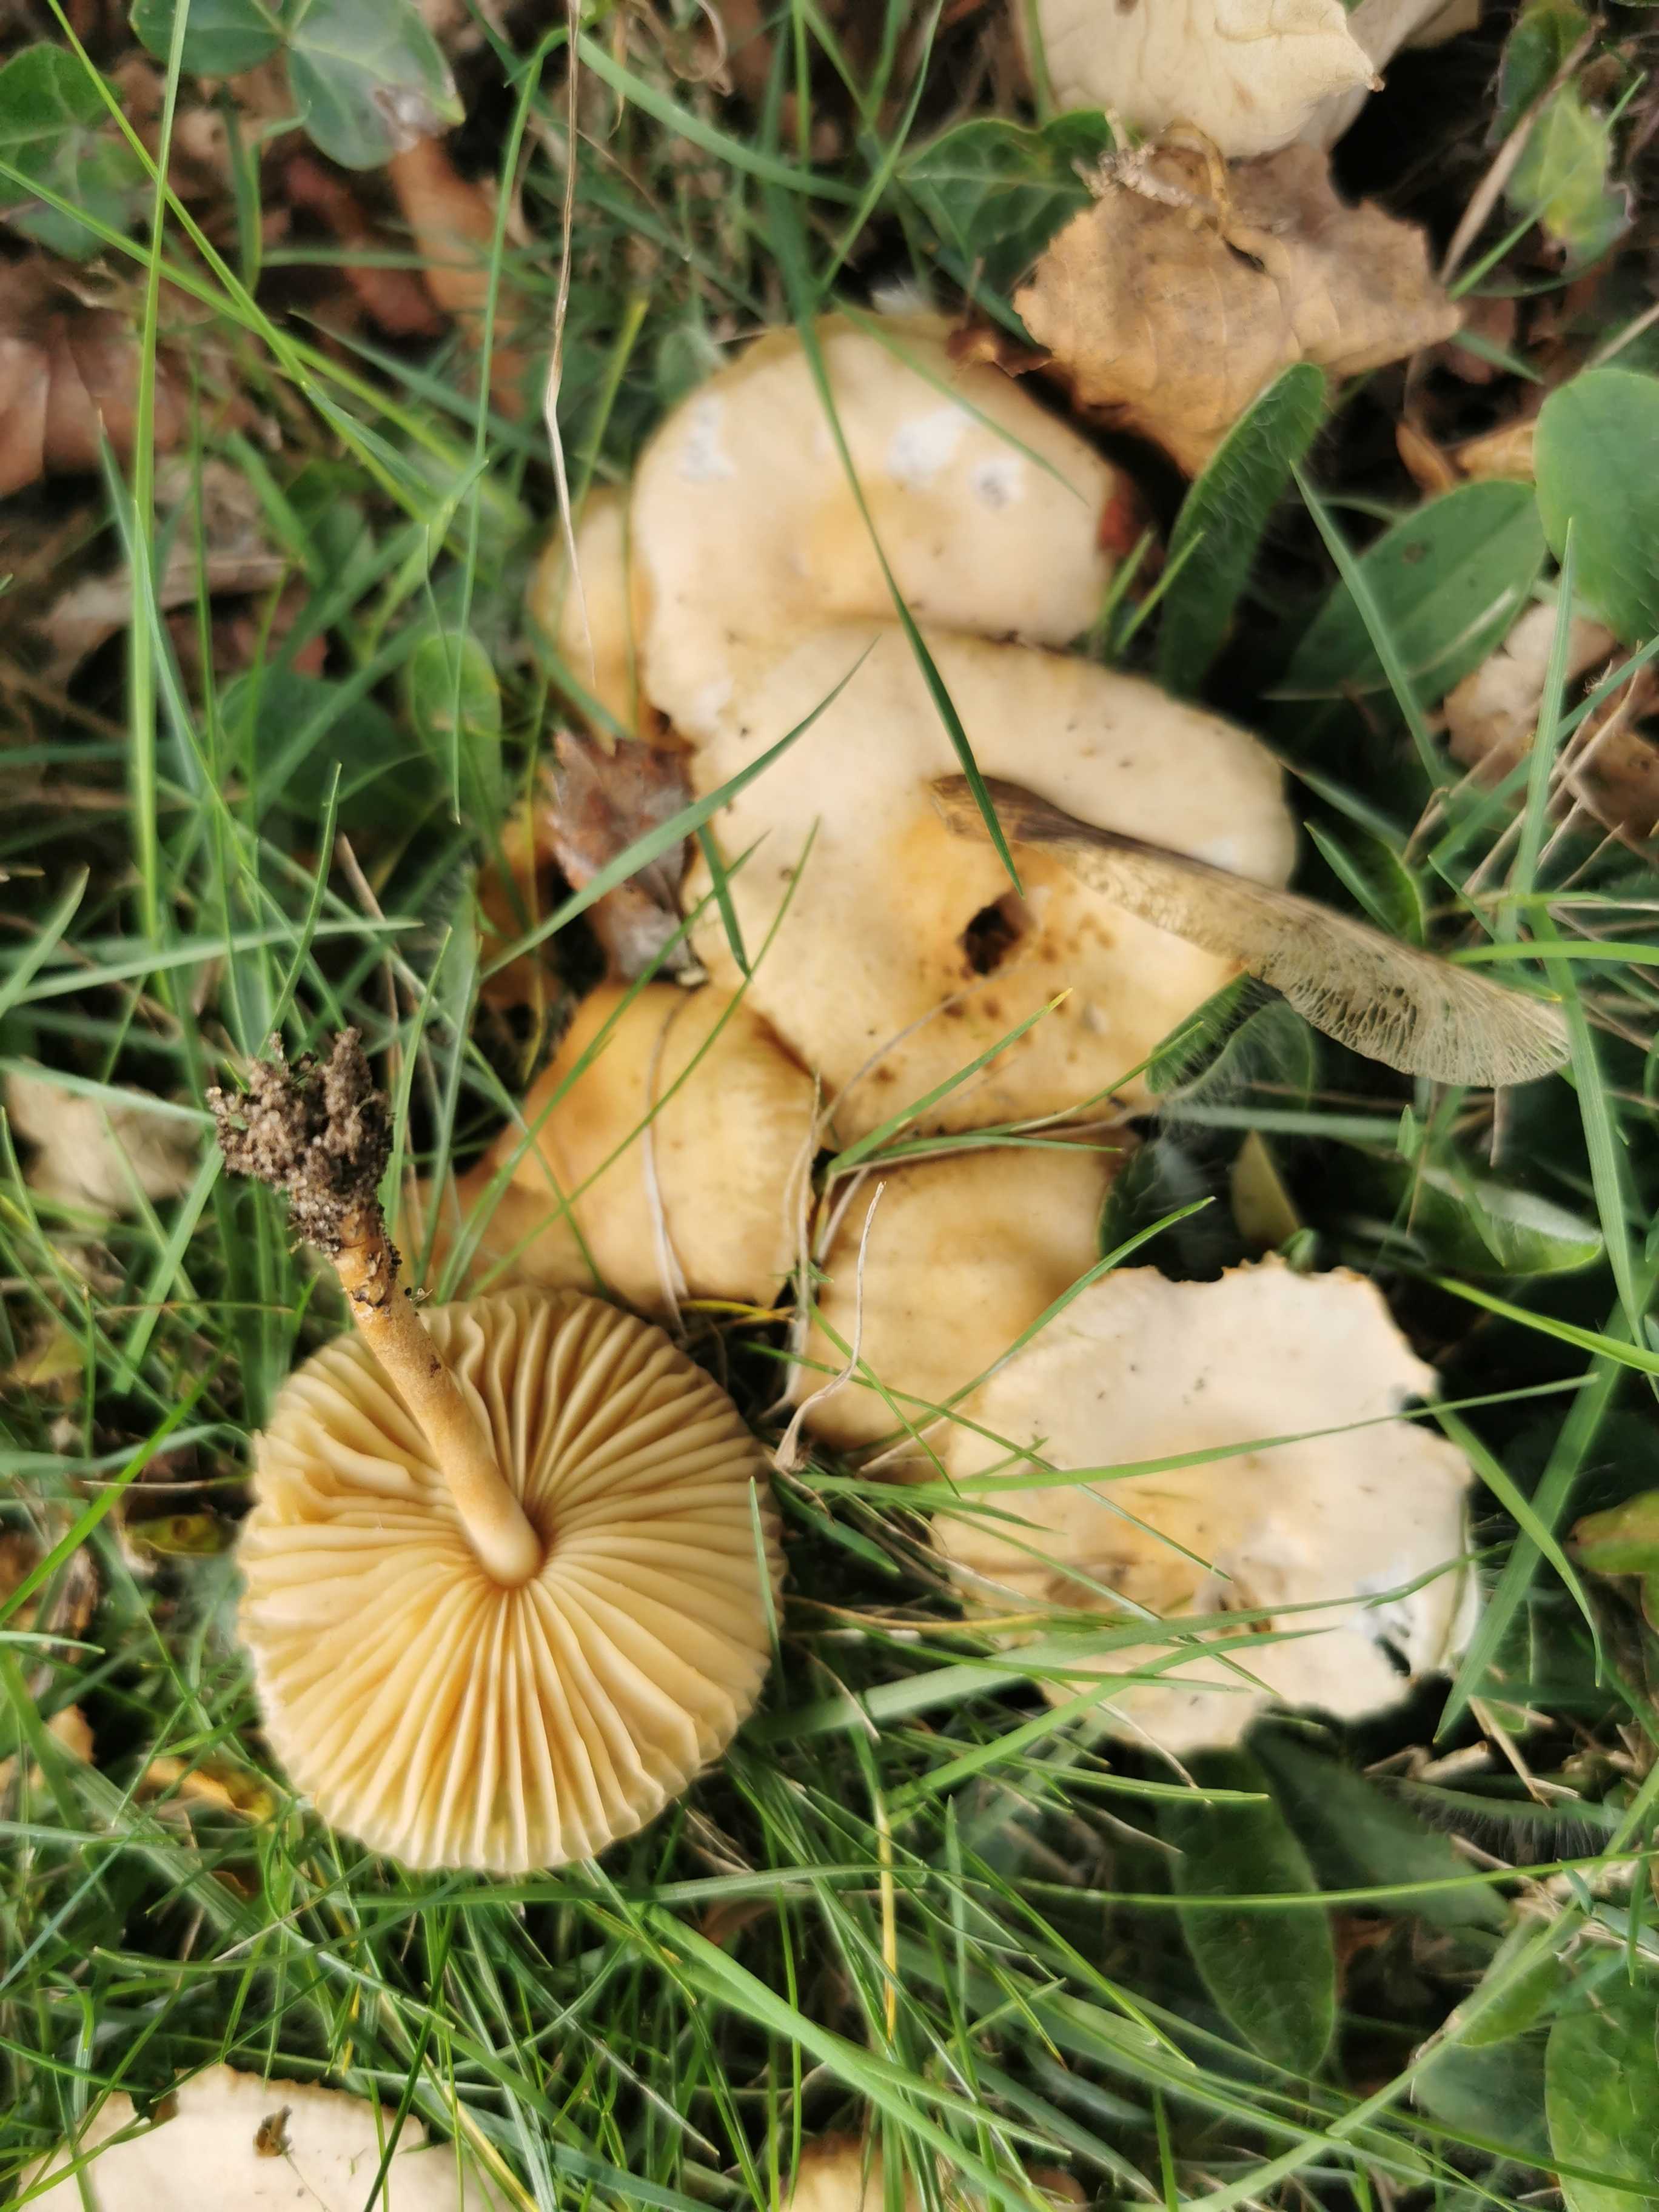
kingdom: Fungi
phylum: Basidiomycota
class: Agaricomycetes
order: Agaricales
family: Marasmiaceae
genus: Marasmius
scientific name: Marasmius oreades
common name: elledans-bruskhat
